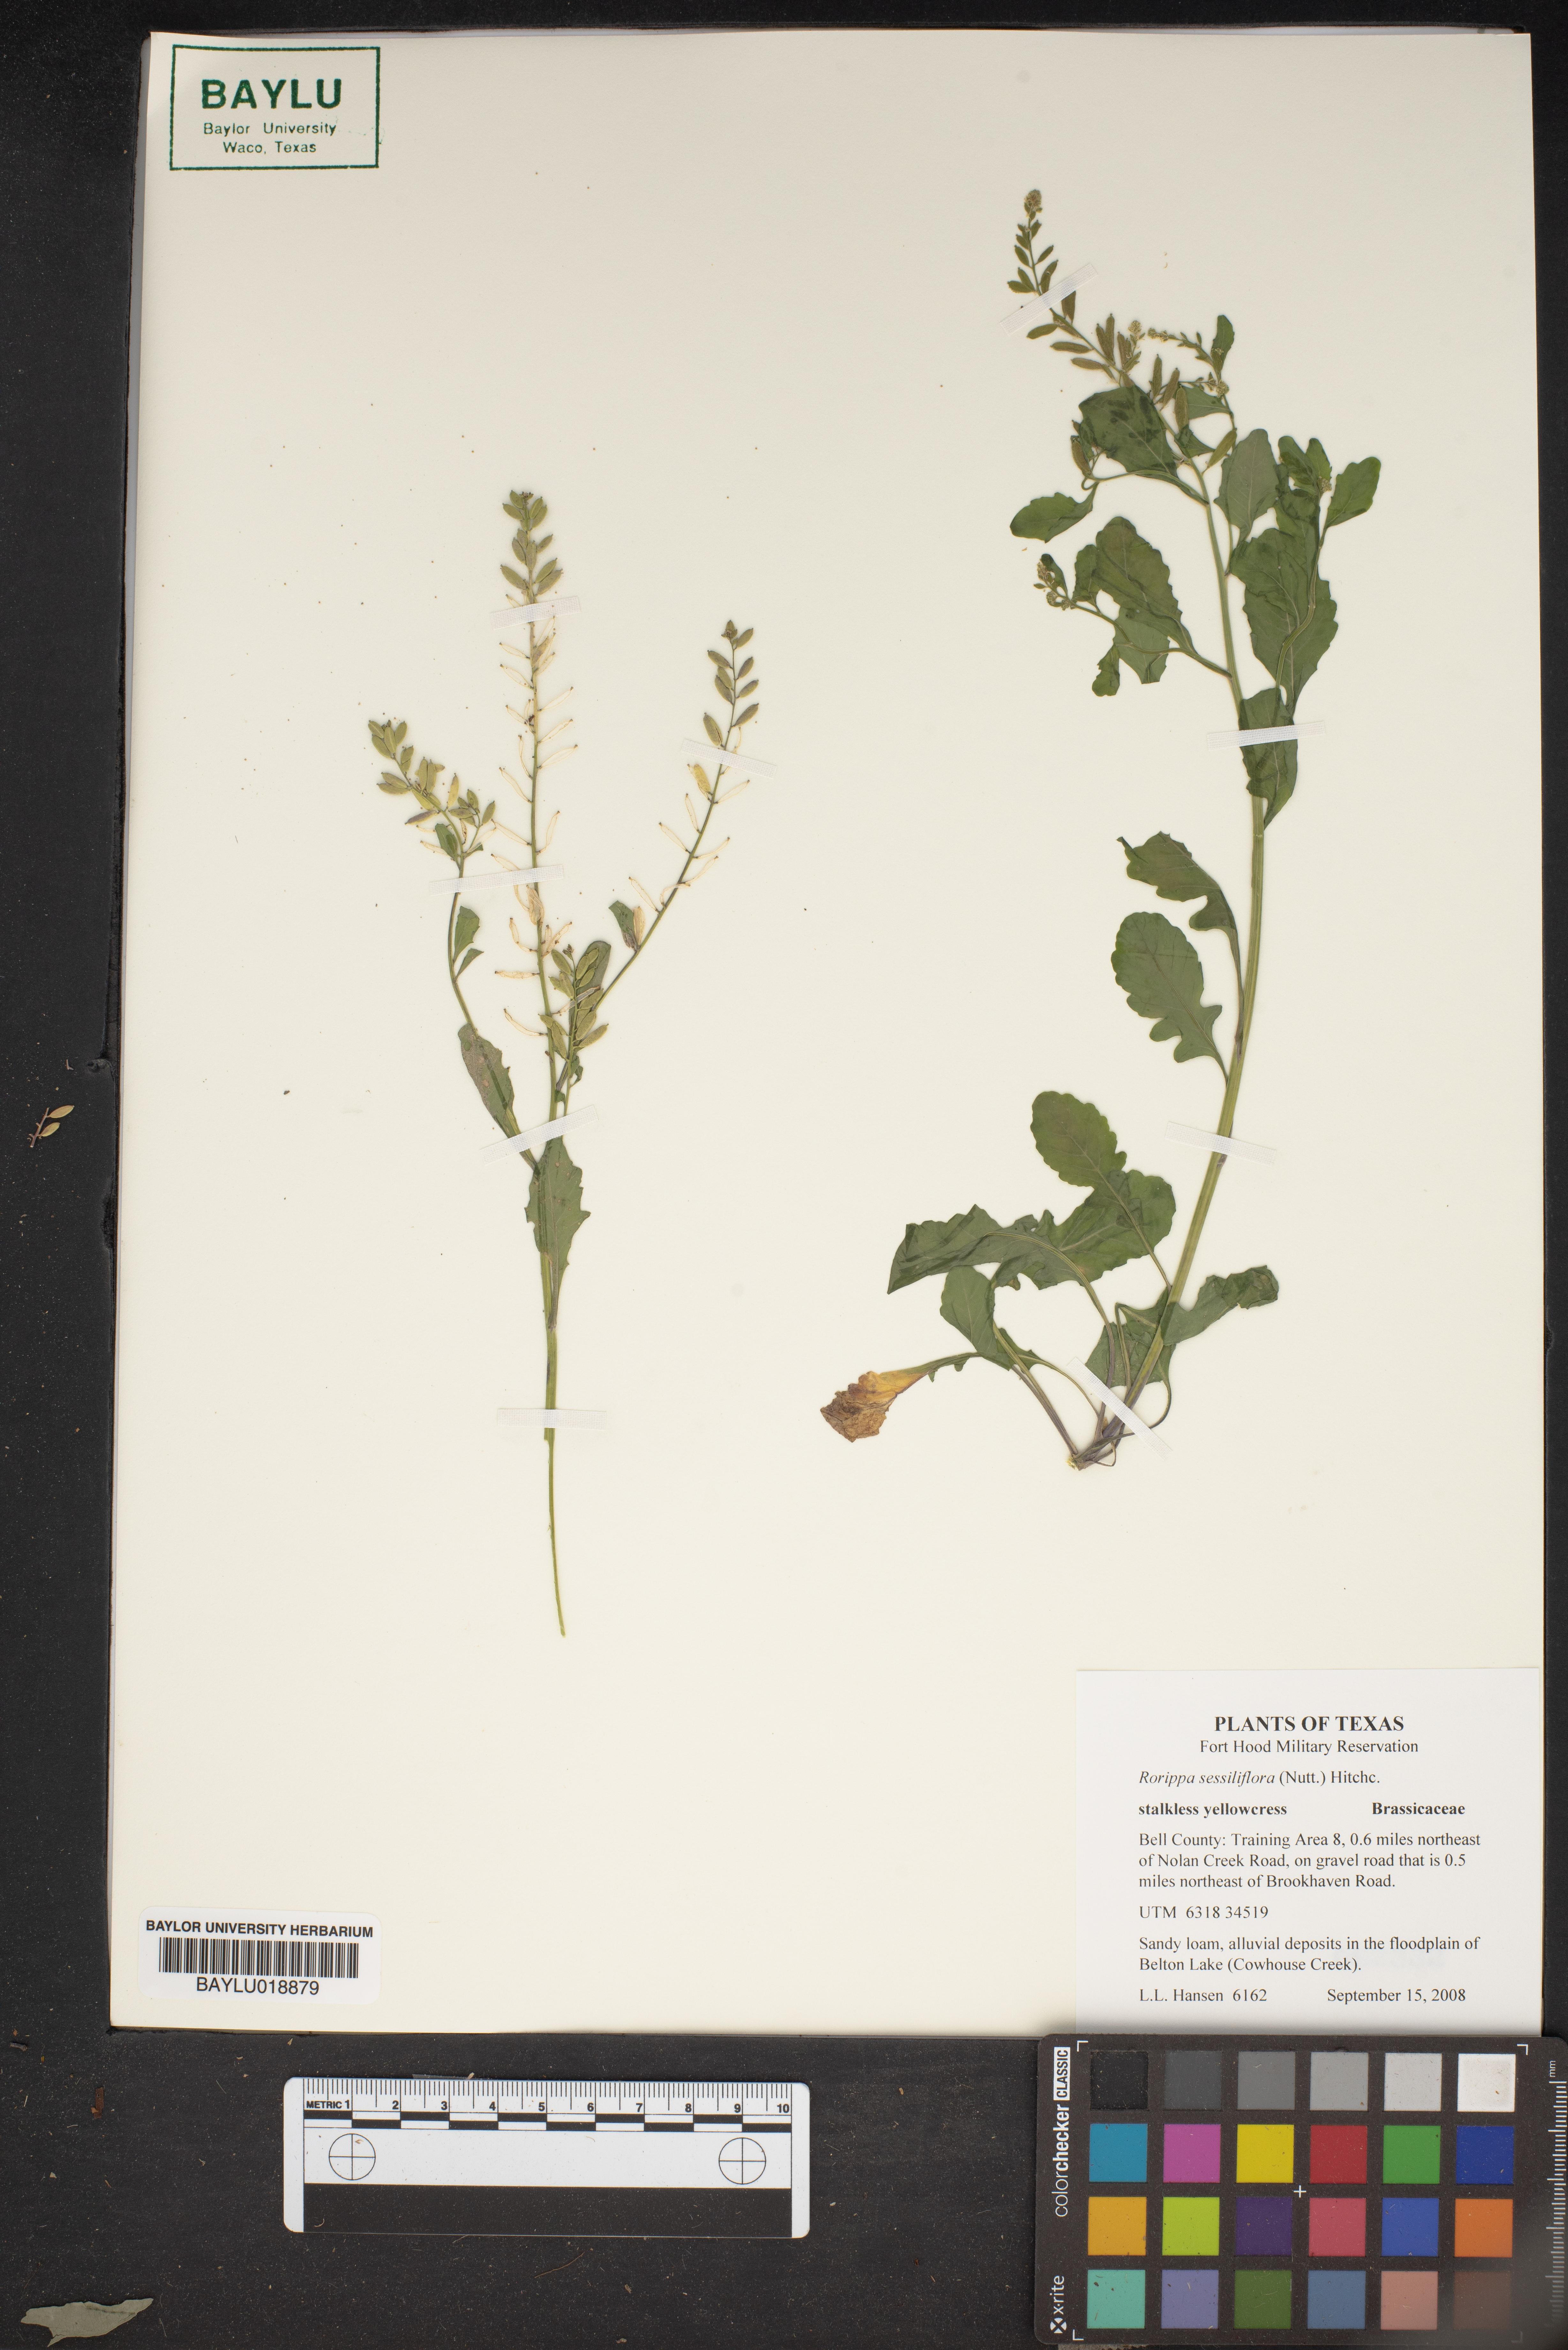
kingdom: Plantae
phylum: Tracheophyta
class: Magnoliopsida
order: Brassicales
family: Brassicaceae
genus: Rorippa
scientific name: Rorippa sessiliflora
